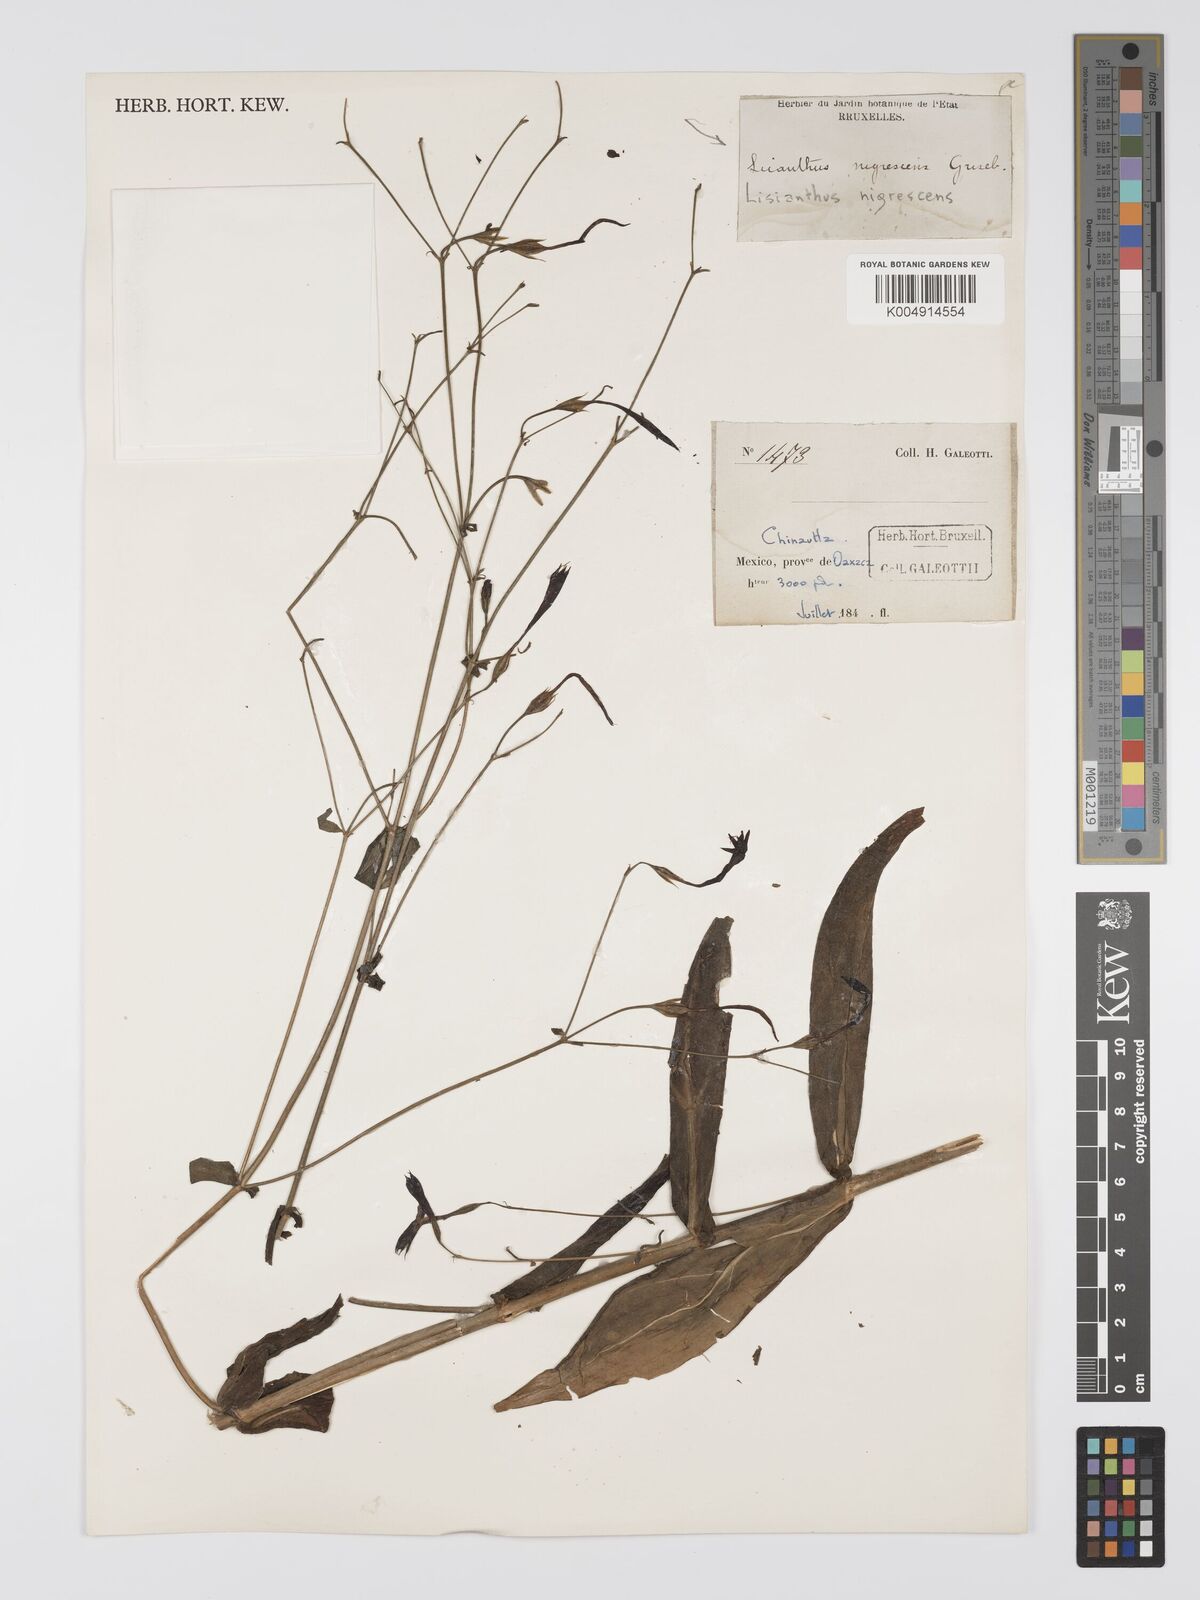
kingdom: Plantae
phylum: Tracheophyta
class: Magnoliopsida
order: Gentianales
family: Gentianaceae
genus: Lisianthus
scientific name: Lisianthus nigrescens
